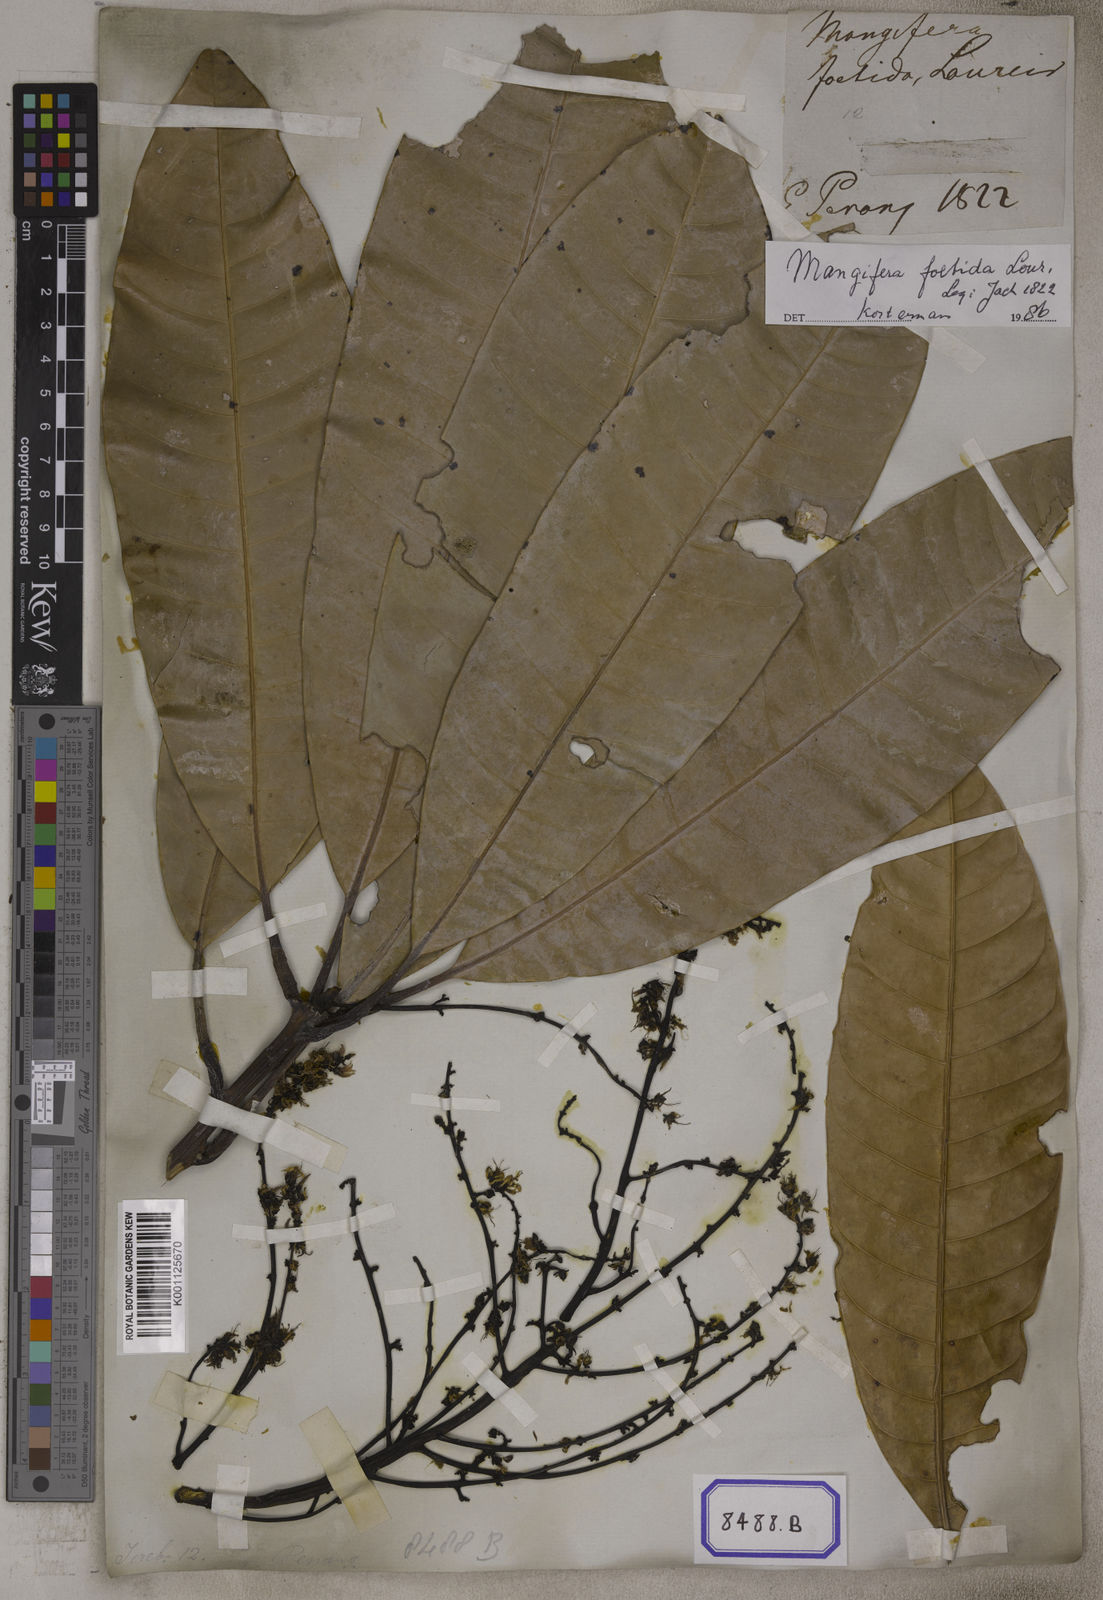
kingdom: Plantae
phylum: Tracheophyta
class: Magnoliopsida
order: Sapindales
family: Anacardiaceae
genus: Mangifera
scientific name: Mangifera foetida
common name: Horse mango
